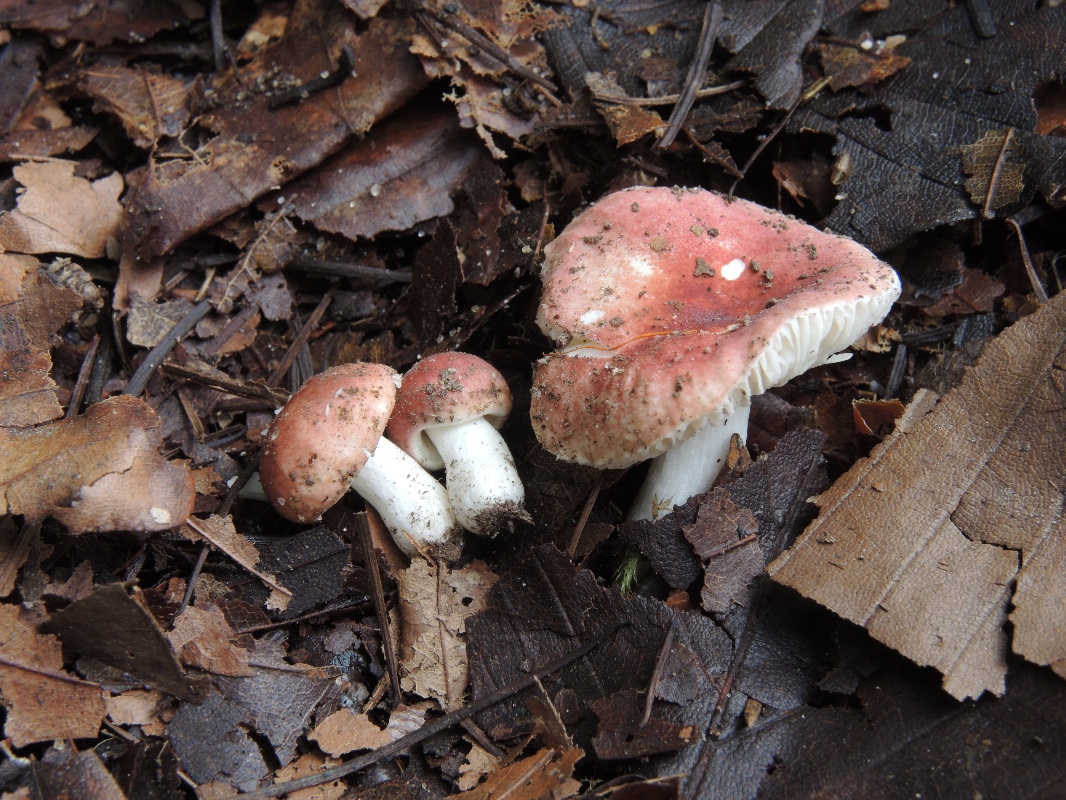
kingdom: Fungi
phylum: Basidiomycota
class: Agaricomycetes
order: Russulales
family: Russulaceae
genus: Russula
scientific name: Russula melzeri
